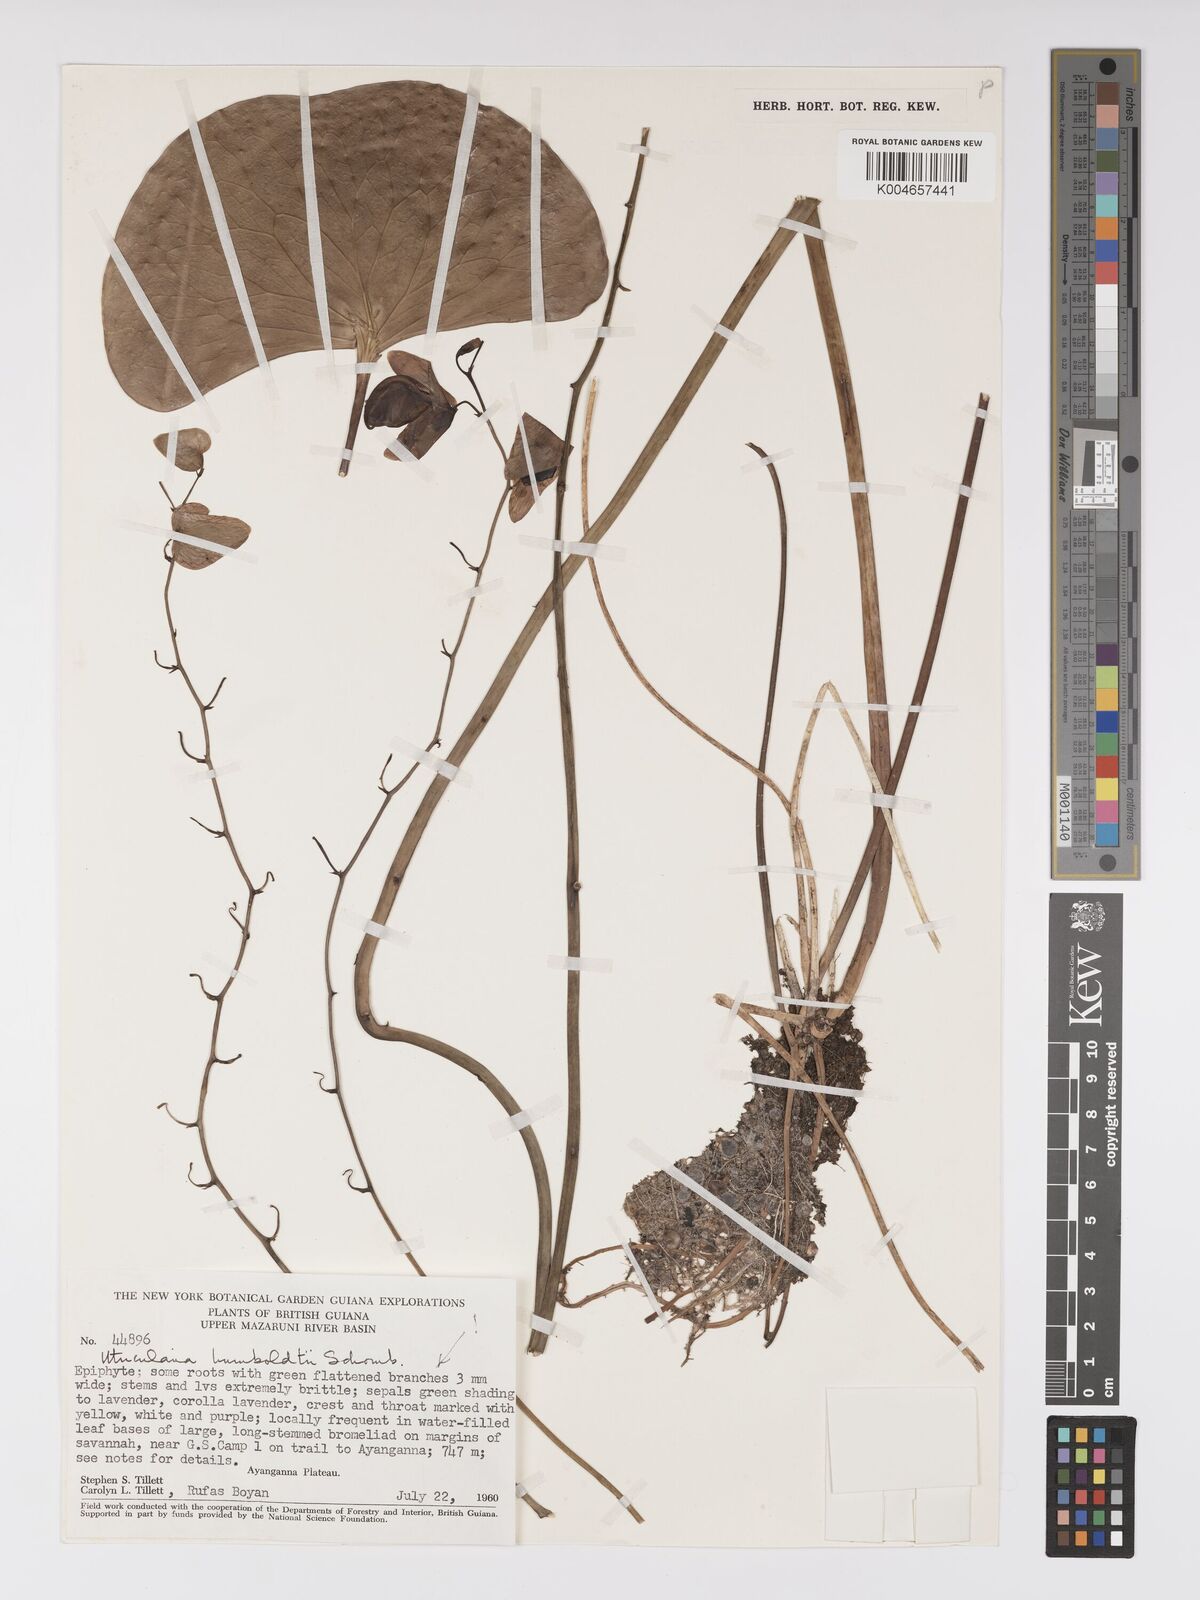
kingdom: Plantae
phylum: Tracheophyta
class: Magnoliopsida
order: Lamiales
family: Lentibulariaceae
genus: Utricularia
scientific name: Utricularia humboldtii
